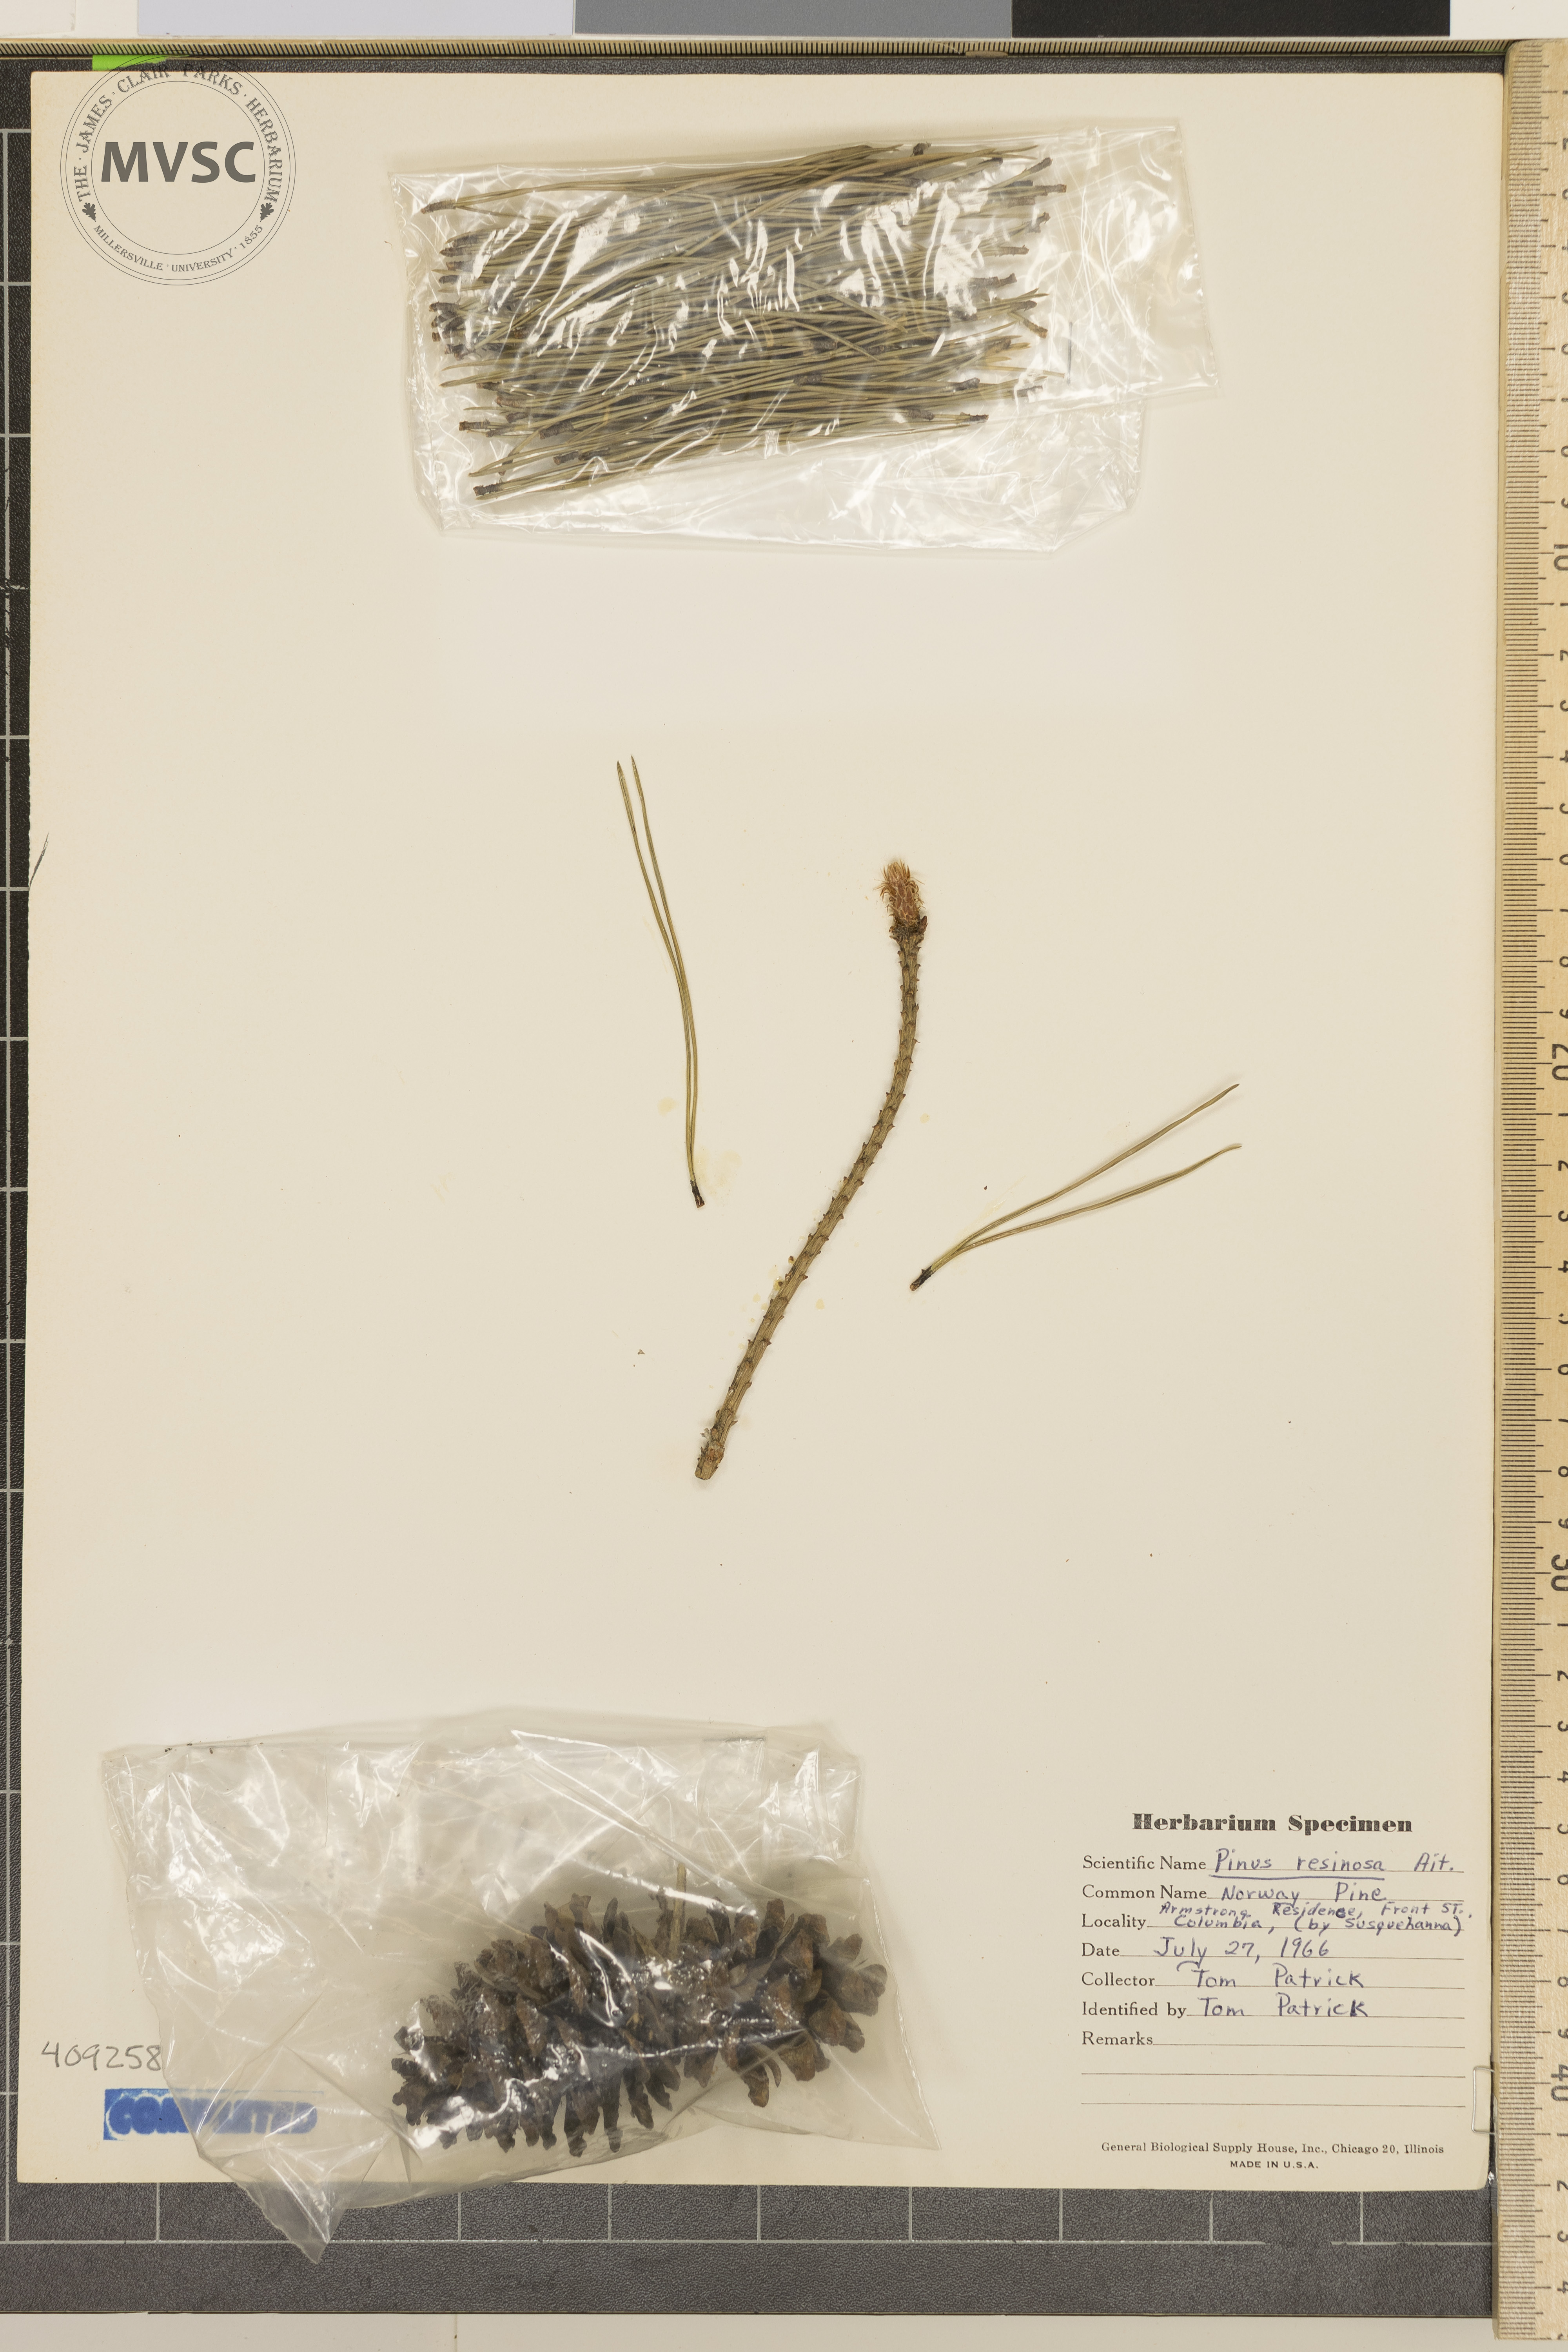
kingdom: Plantae
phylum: Tracheophyta
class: Pinopsida
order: Pinales
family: Pinaceae
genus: Pinus
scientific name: Pinus resinosa
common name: Norway pine
